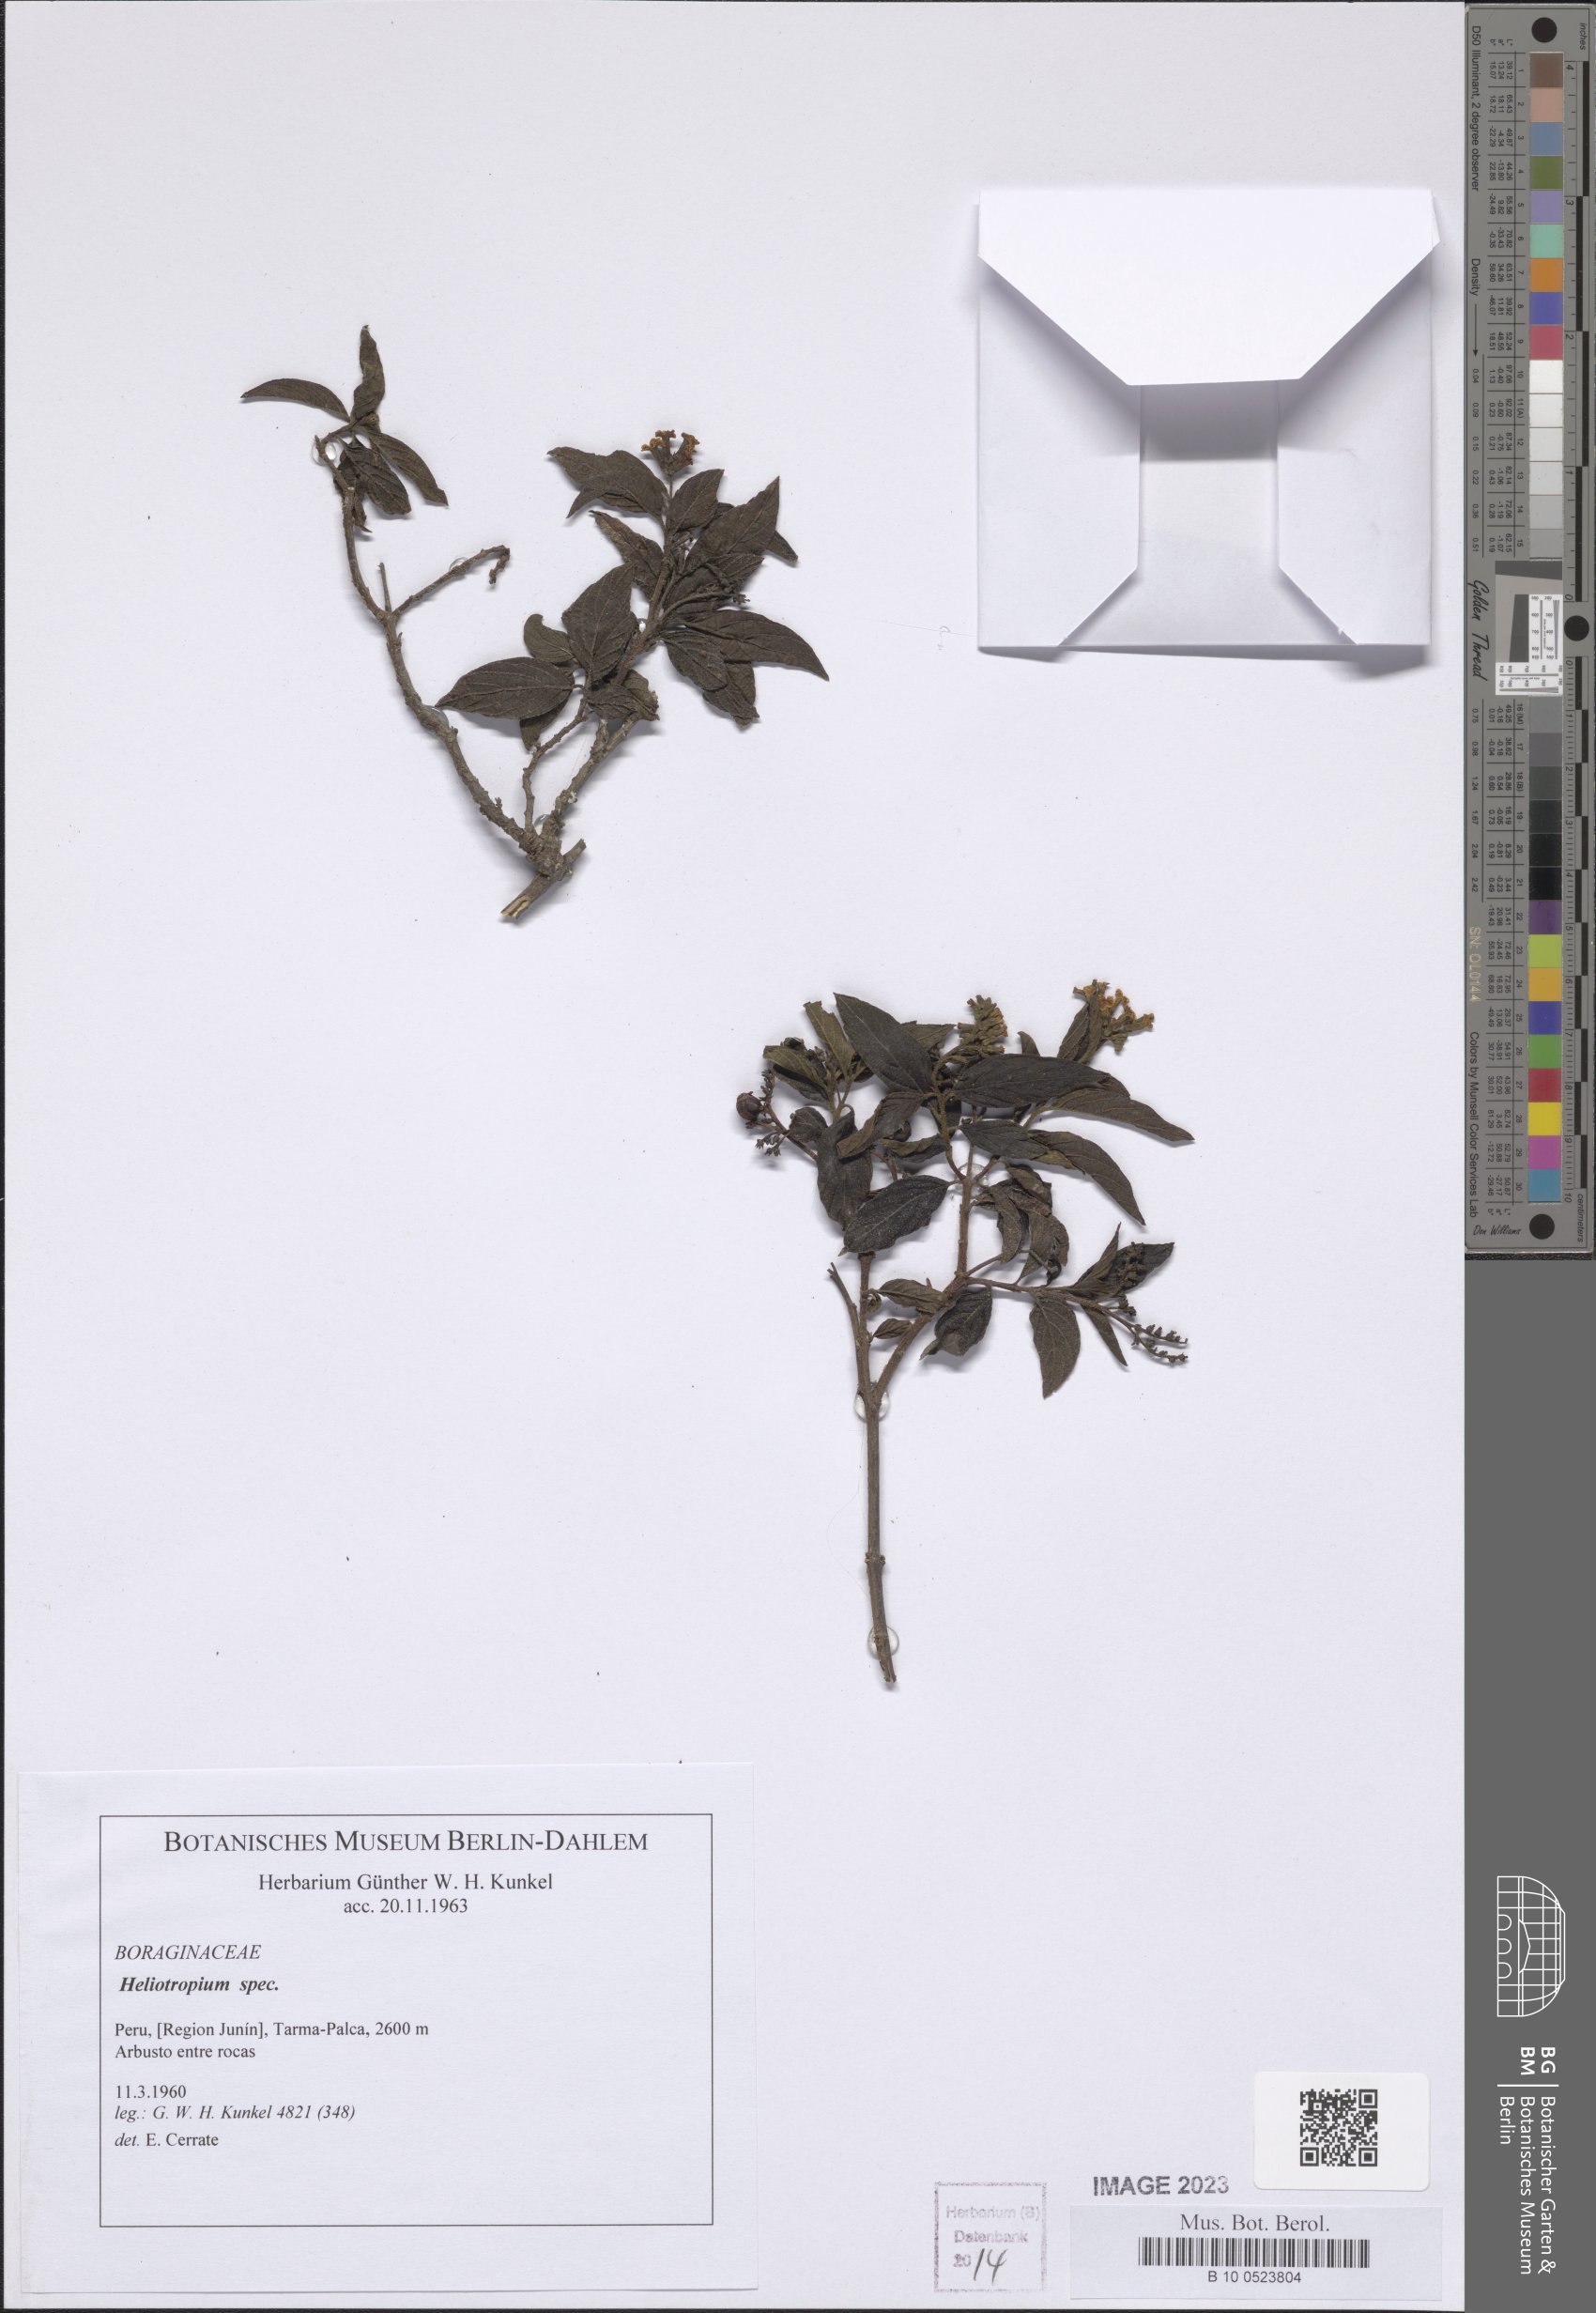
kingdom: Plantae
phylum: Tracheophyta
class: Magnoliopsida
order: Boraginales
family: Heliotropiaceae
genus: Heliotropium
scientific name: Heliotropium
